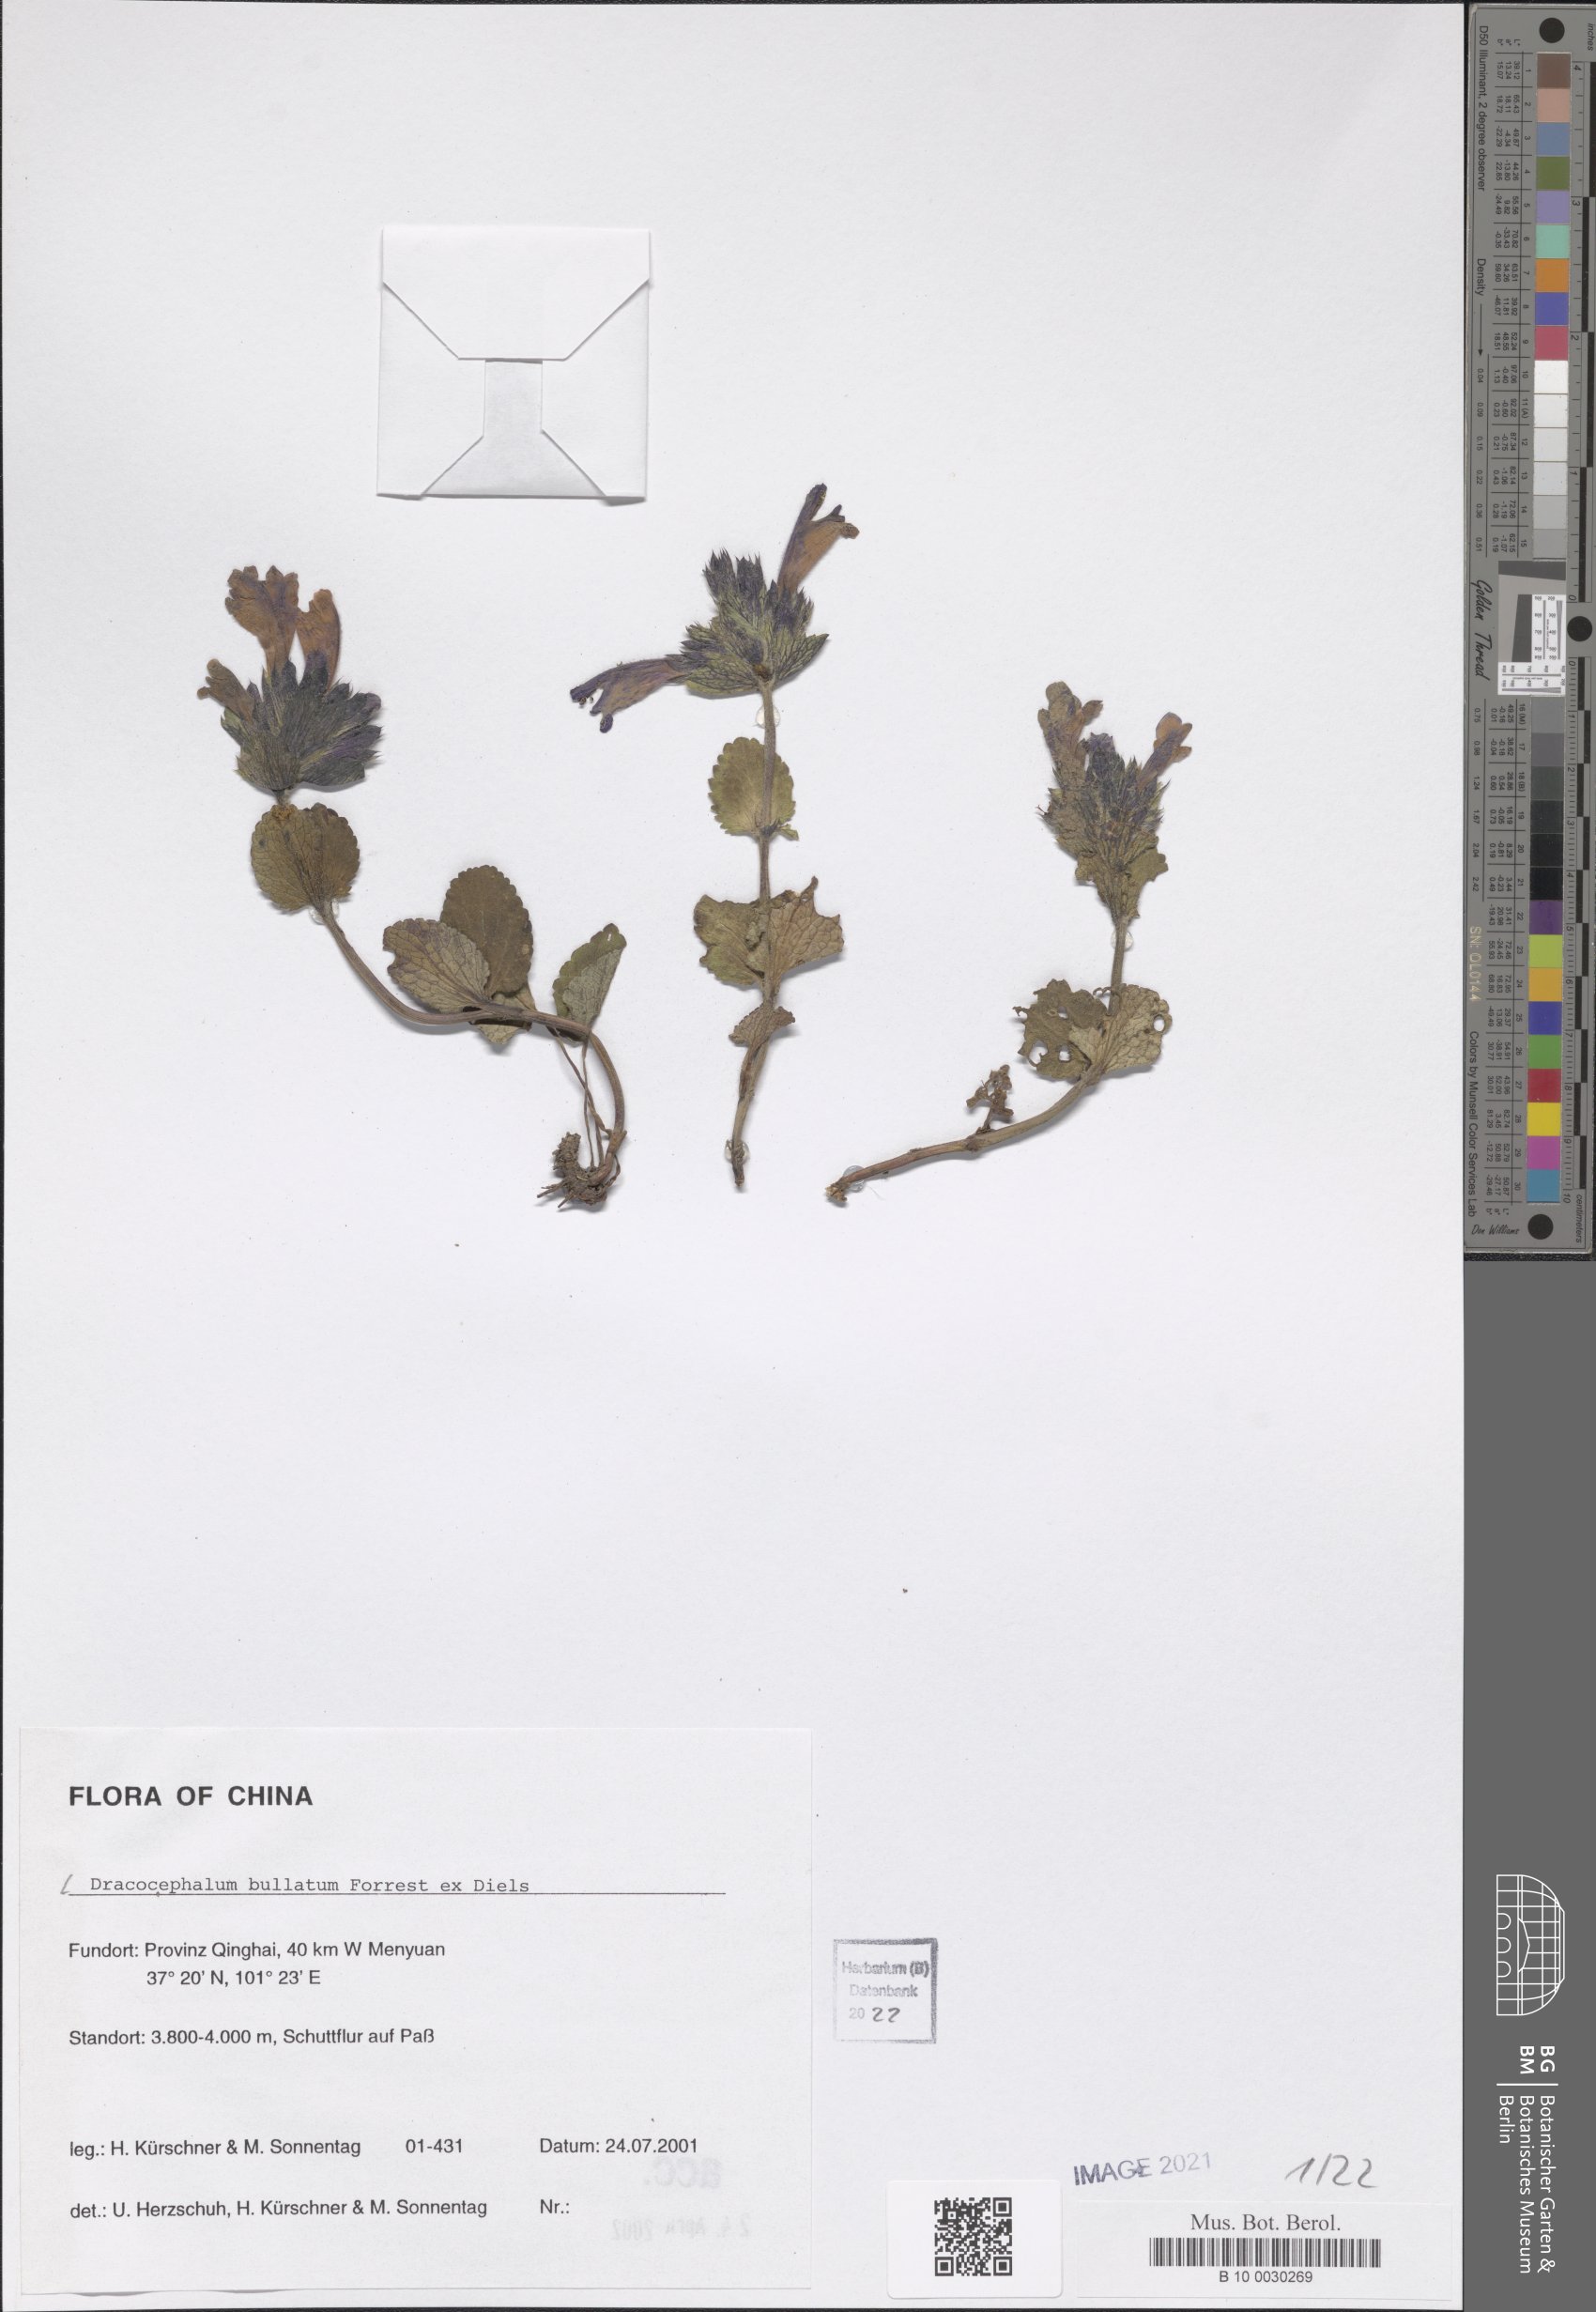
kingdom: Plantae
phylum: Tracheophyta
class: Magnoliopsida
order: Lamiales
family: Lamiaceae
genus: Dracocephalum
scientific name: Dracocephalum bullatum
